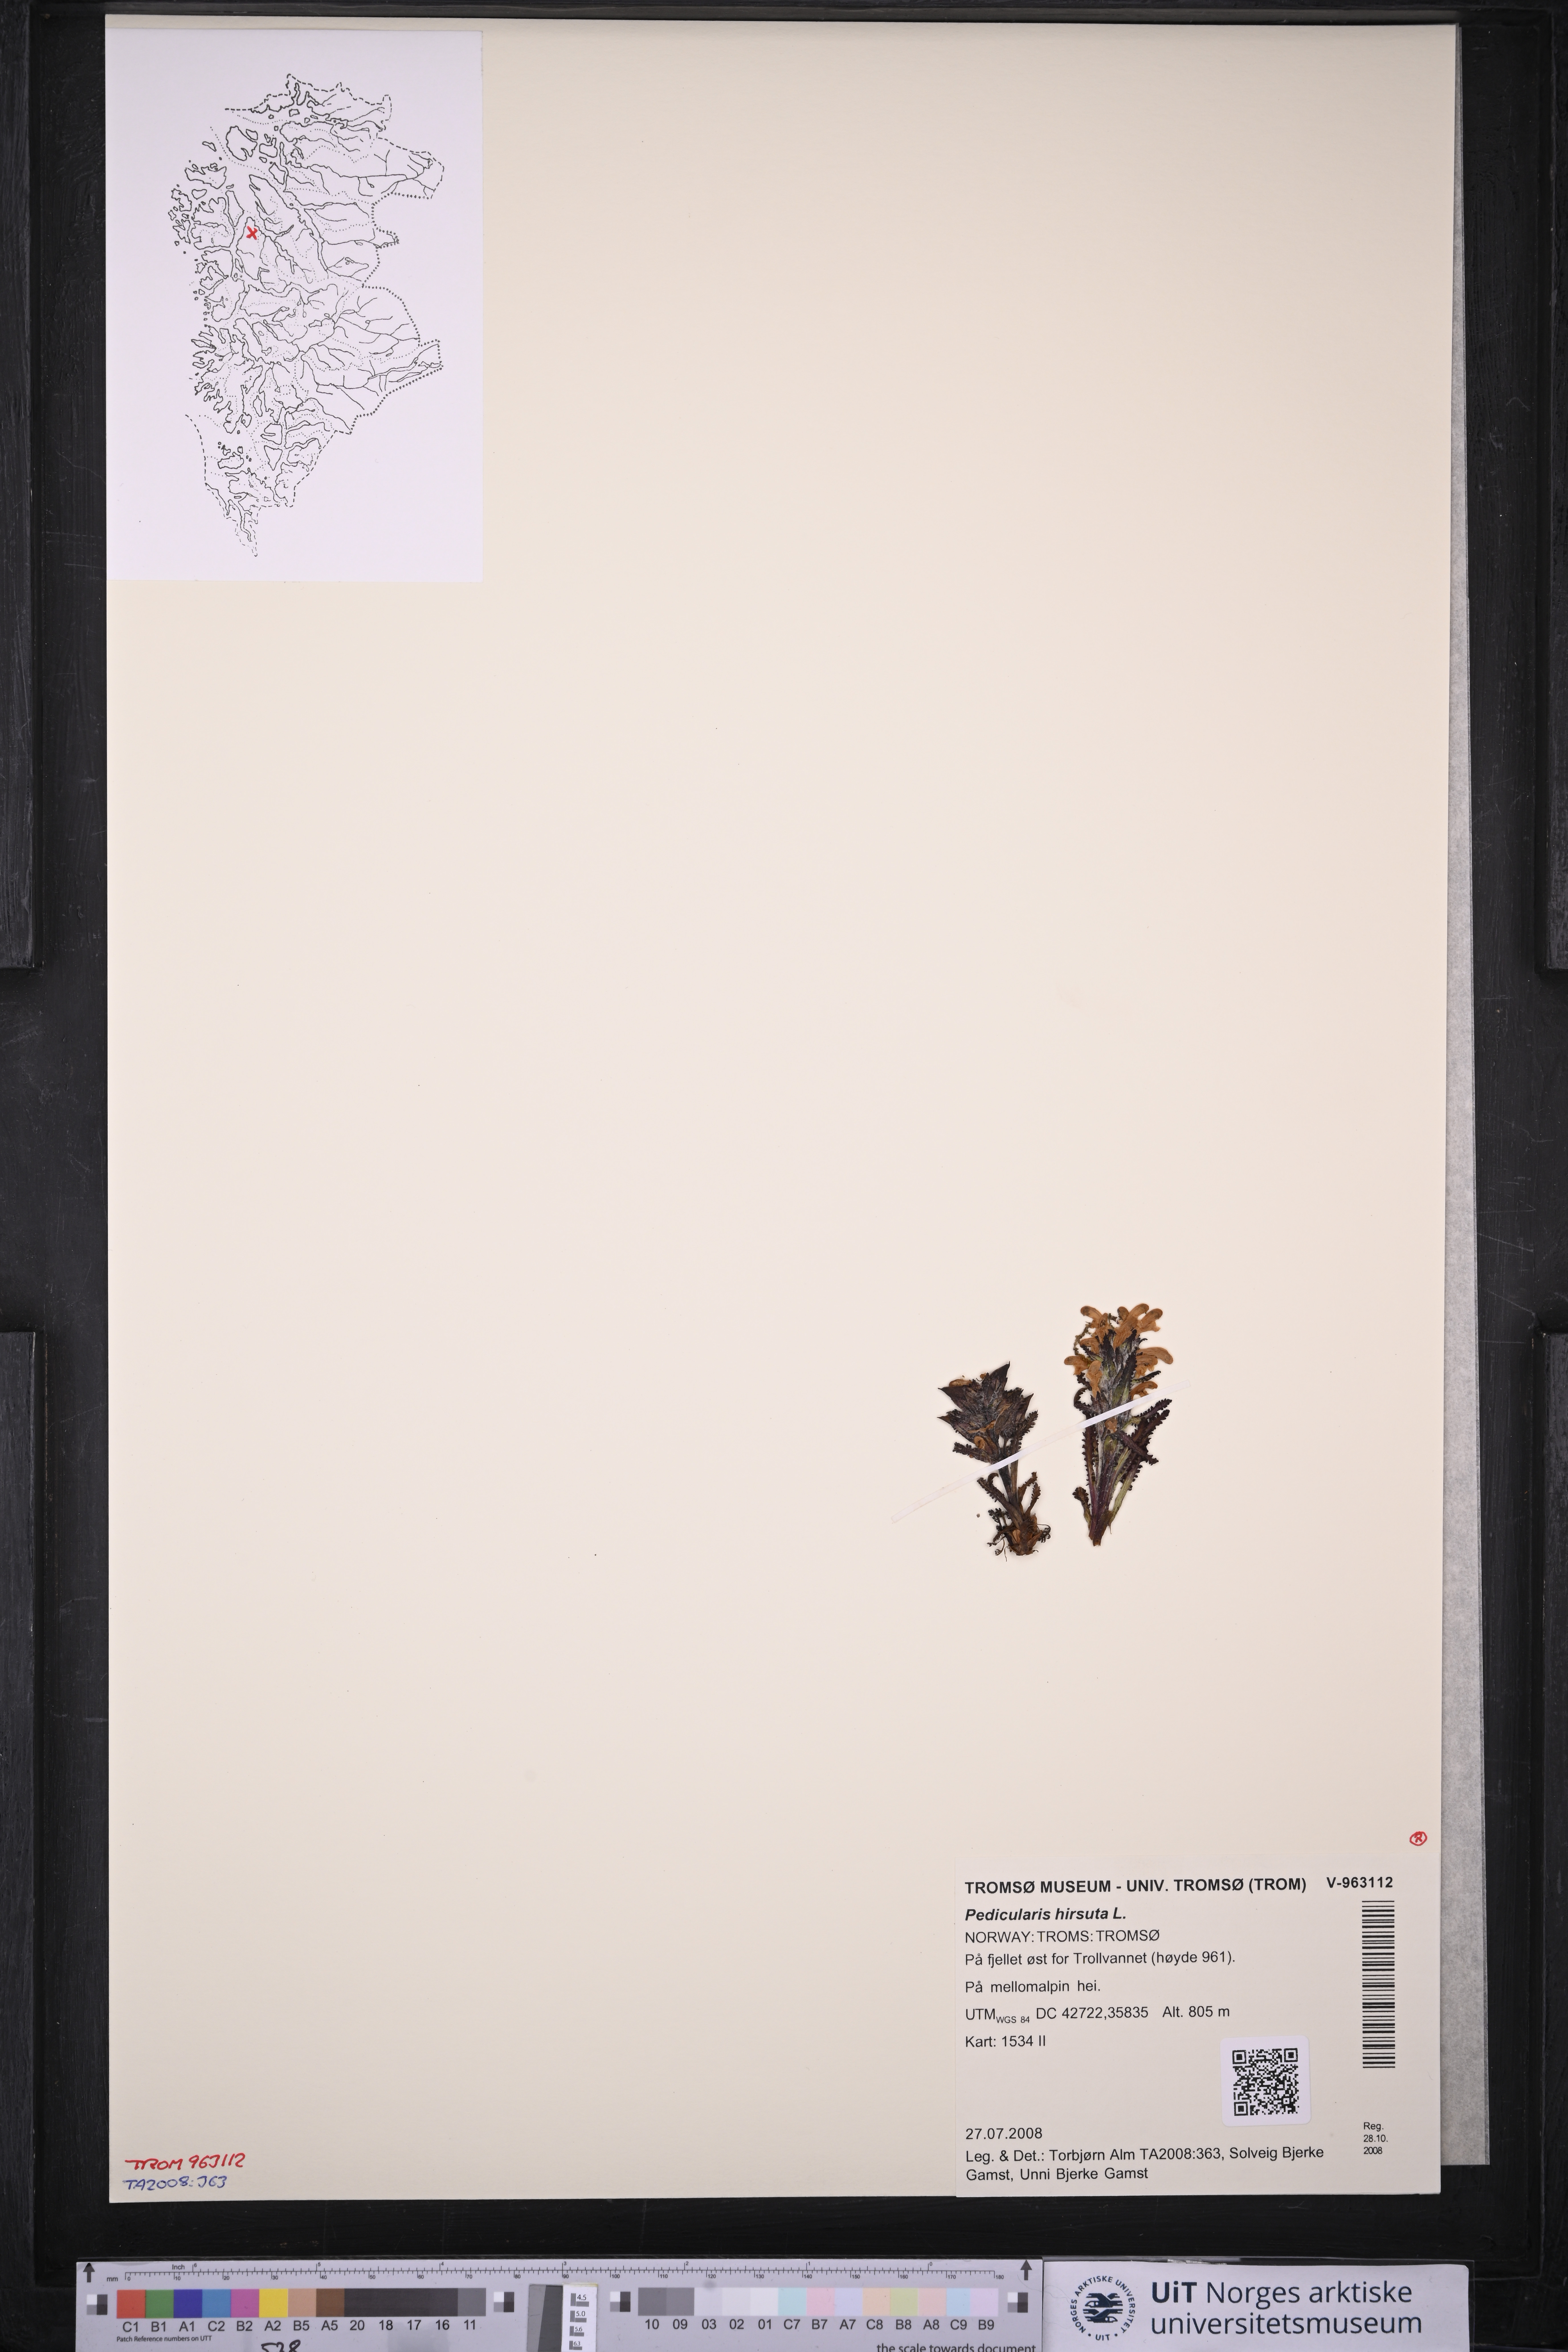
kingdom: Plantae
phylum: Tracheophyta
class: Magnoliopsida
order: Lamiales
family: Orobanchaceae
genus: Pedicularis
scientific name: Pedicularis hirsuta
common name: Hairy lousewort
